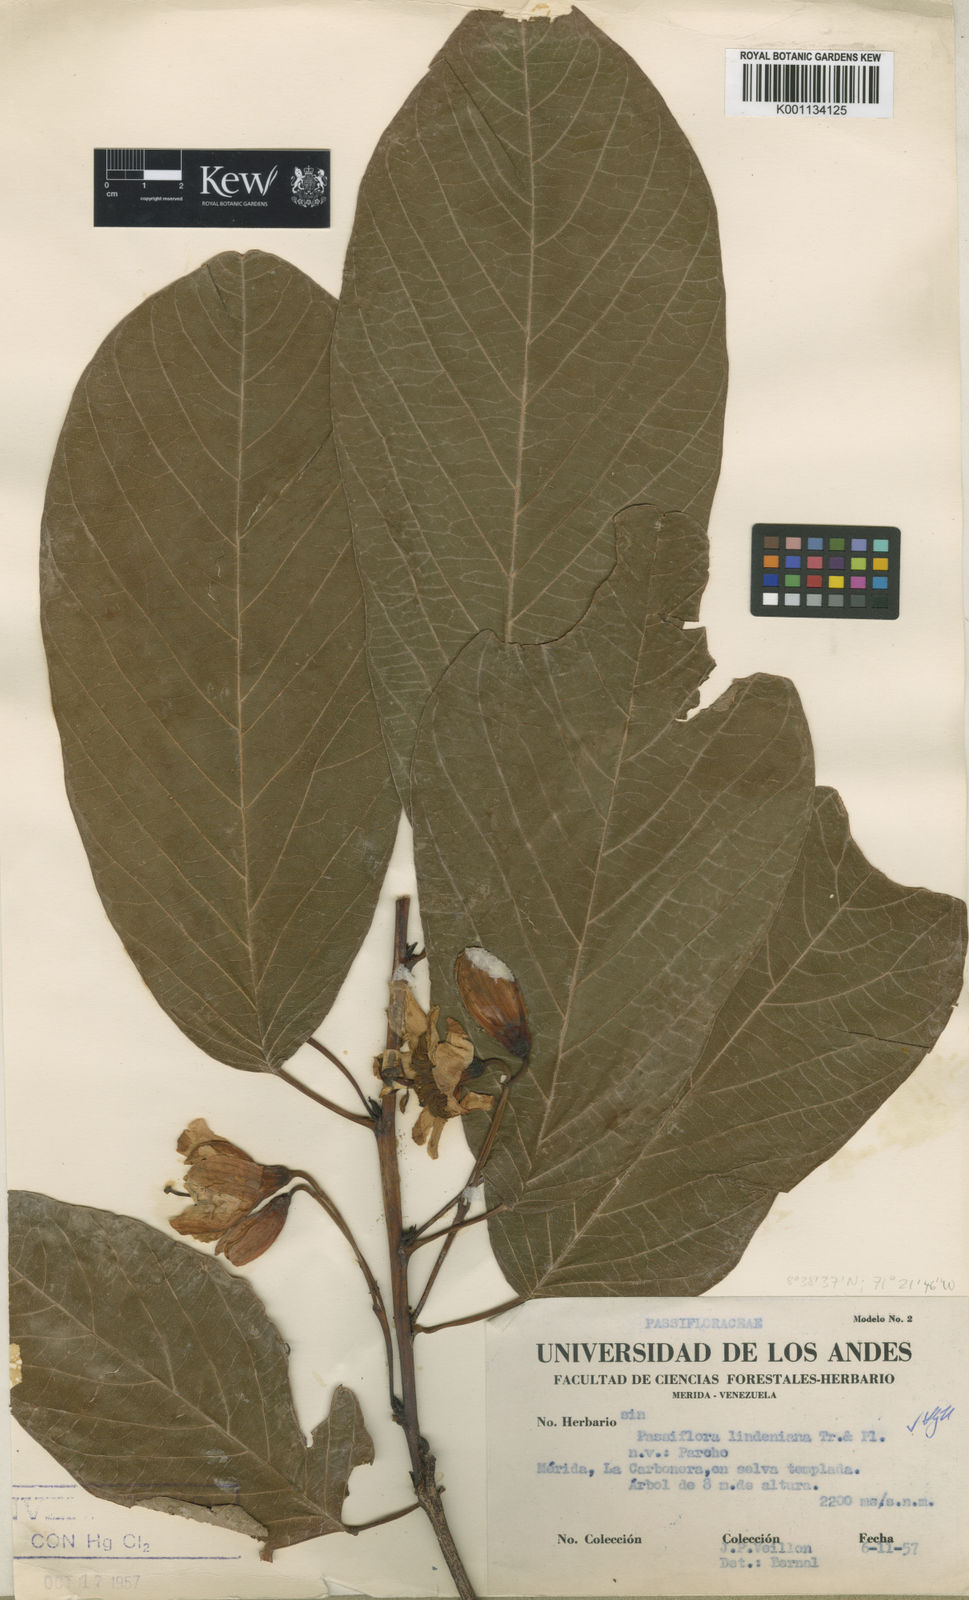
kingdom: Plantae
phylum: Tracheophyta
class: Magnoliopsida
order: Malpighiales
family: Passifloraceae
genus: Passiflora
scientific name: Passiflora lindeniana
